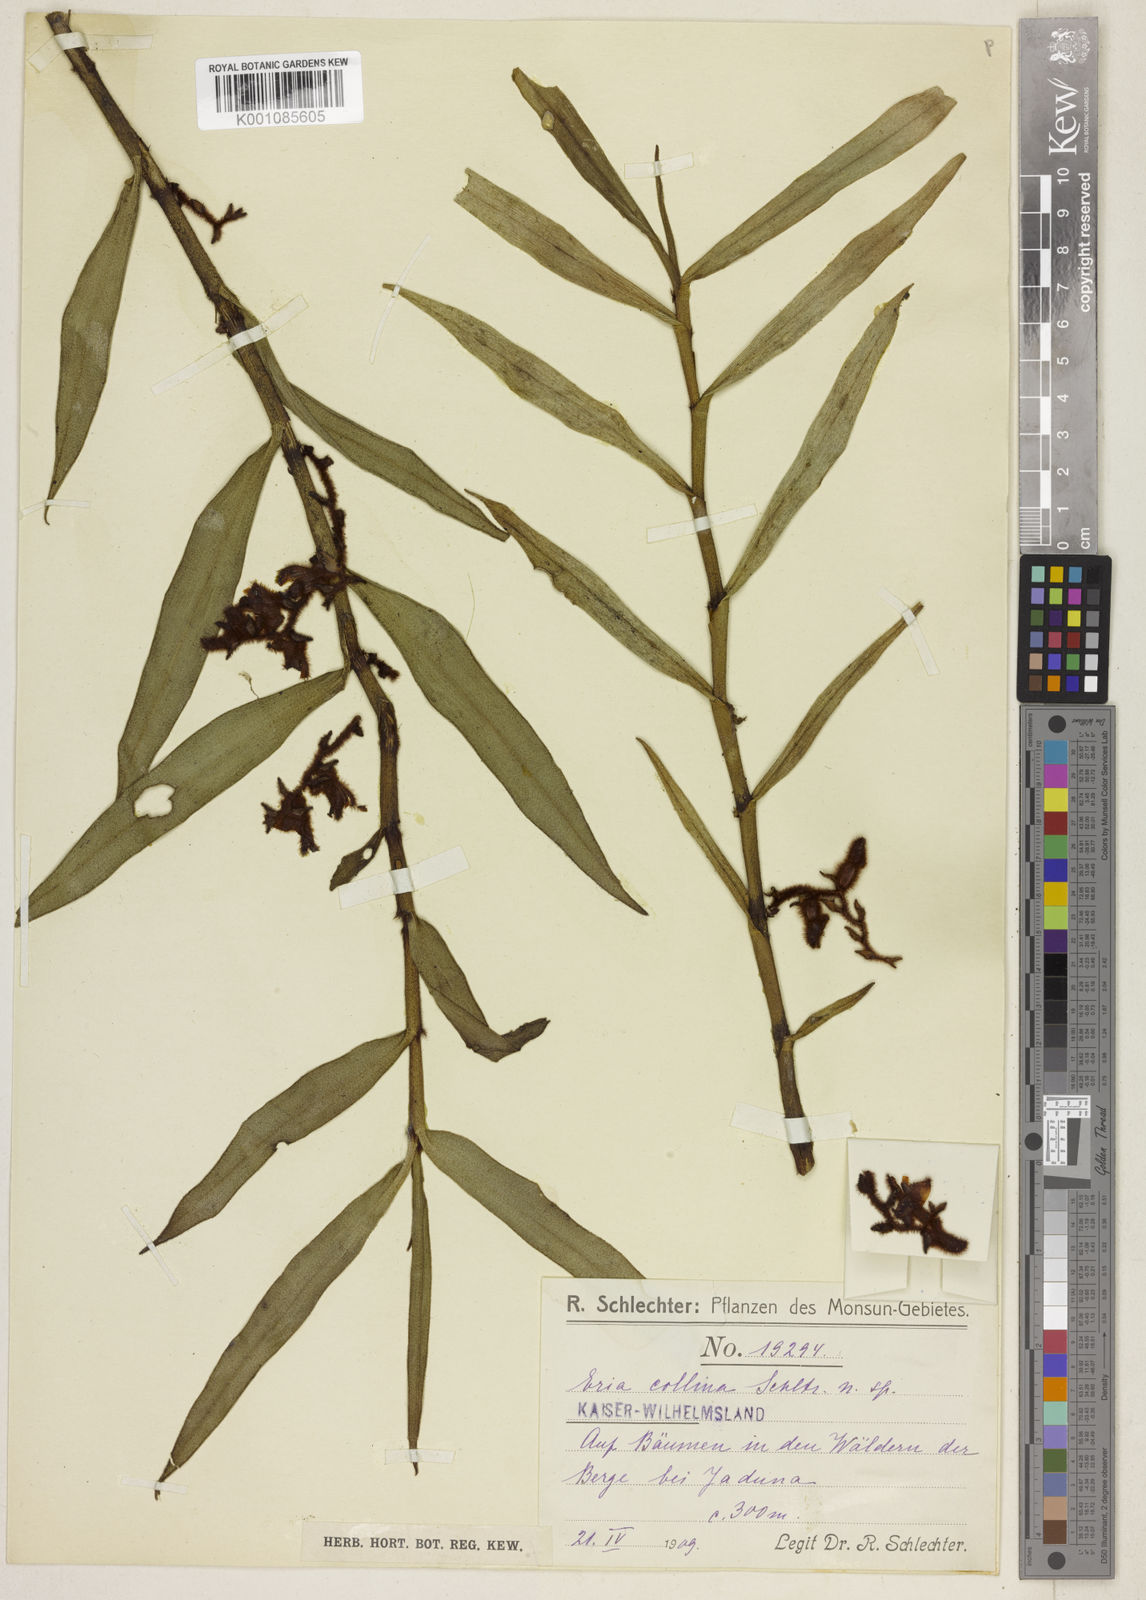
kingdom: Plantae
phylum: Tracheophyta
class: Liliopsida
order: Asparagales
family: Orchidaceae
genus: Trichotosia
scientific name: Trichotosia gautierensis
